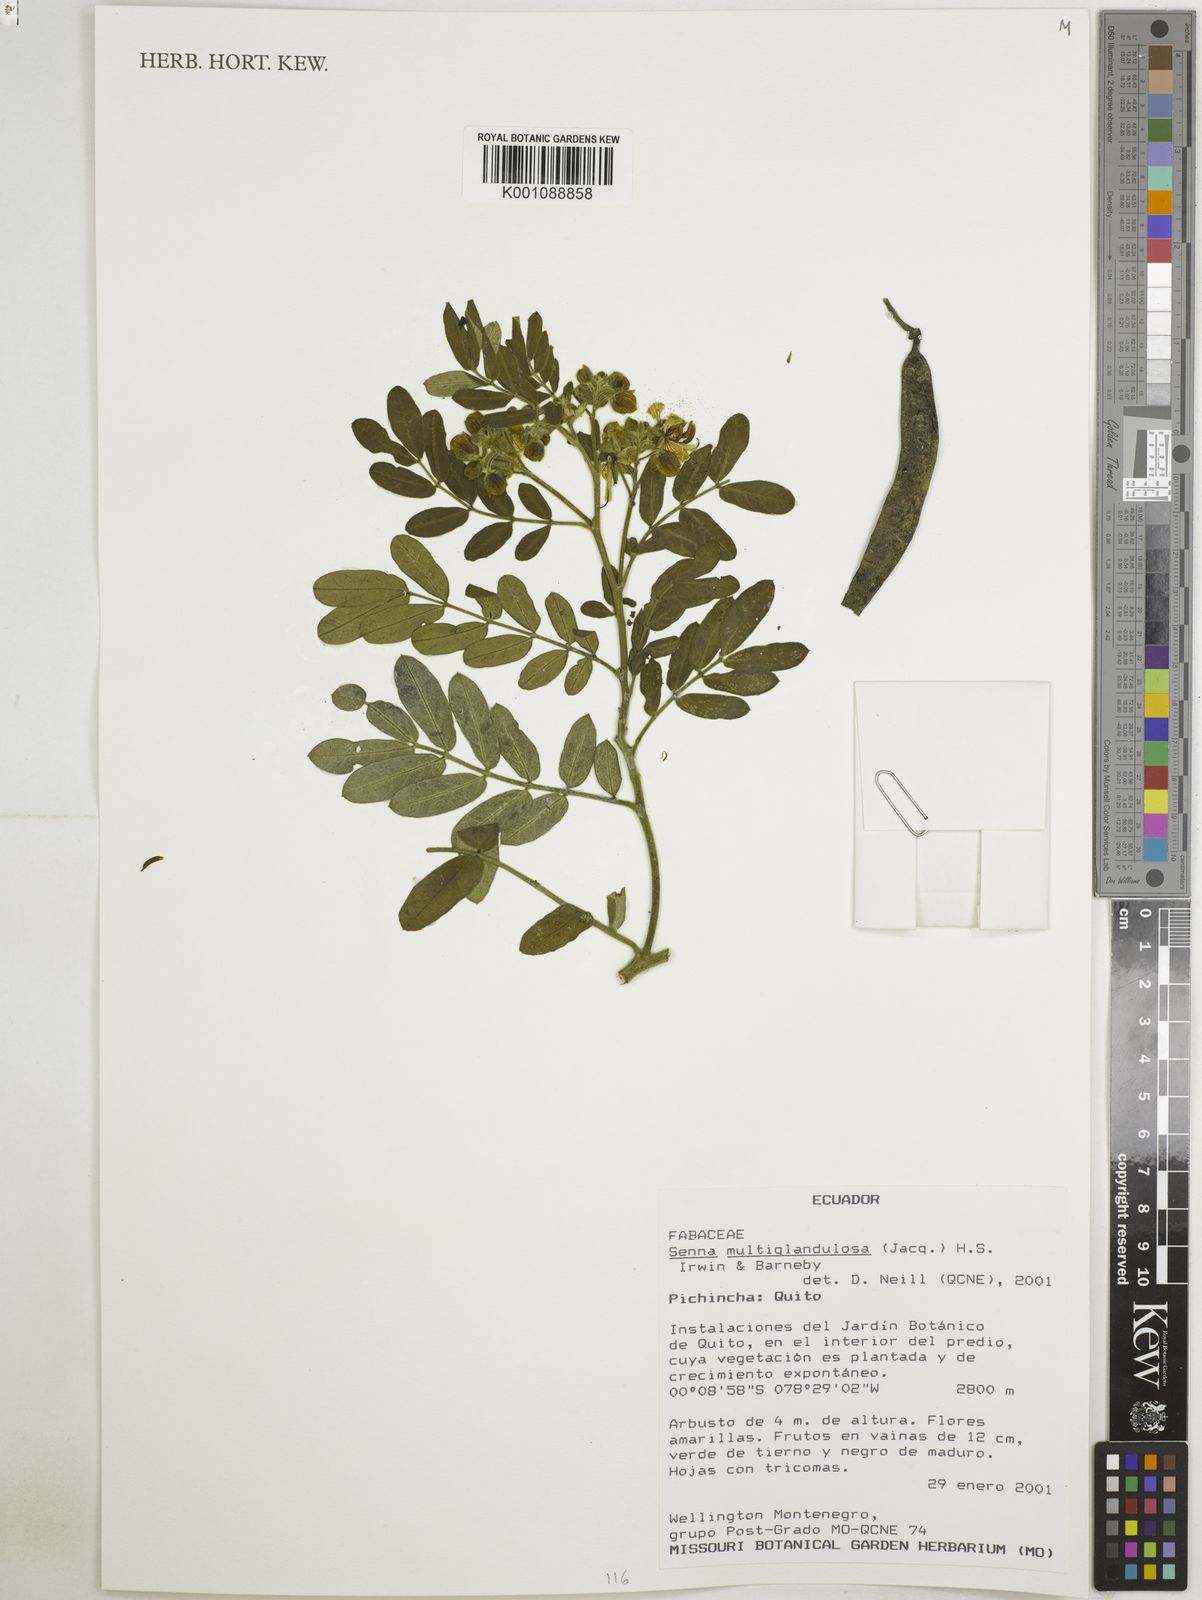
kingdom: Plantae
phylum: Tracheophyta
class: Magnoliopsida
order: Fabales
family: Fabaceae
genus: Senna
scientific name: Senna multiglandulosa
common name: Glandular senna
